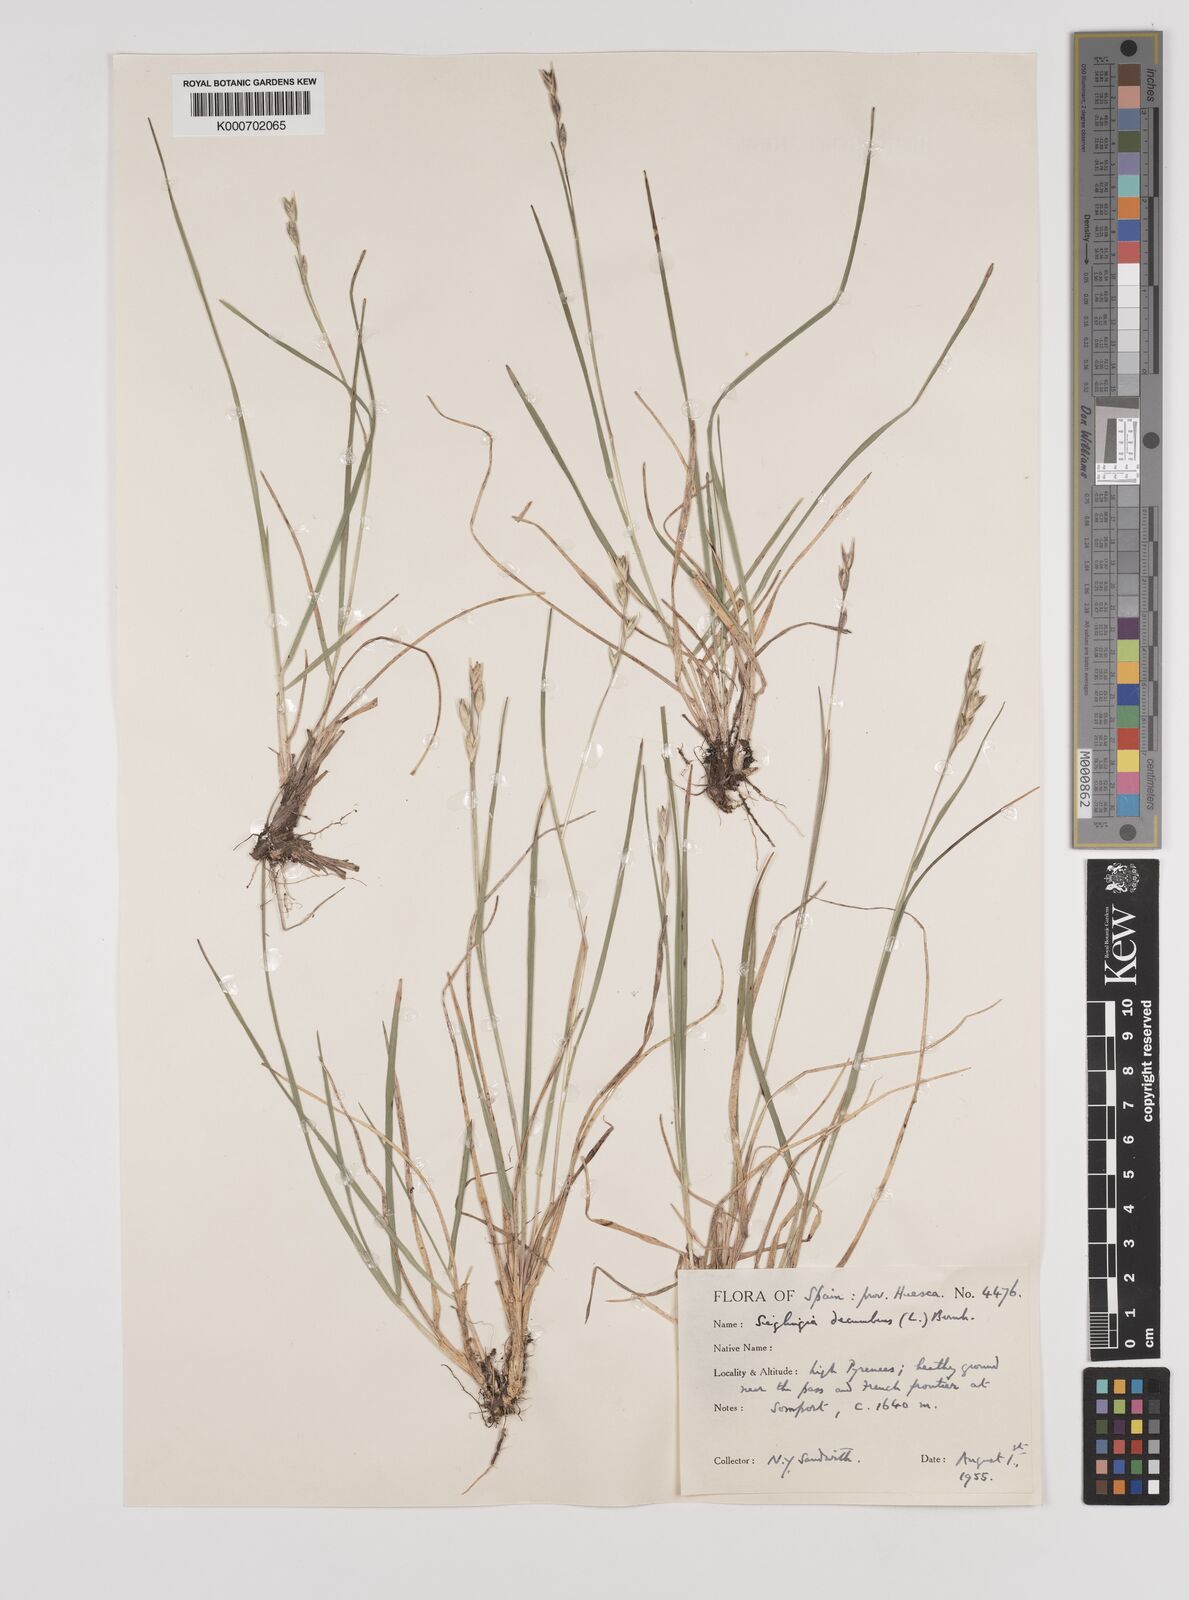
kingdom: Plantae
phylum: Tracheophyta
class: Liliopsida
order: Poales
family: Poaceae
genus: Danthonia
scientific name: Danthonia decumbens
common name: Common heathgrass
